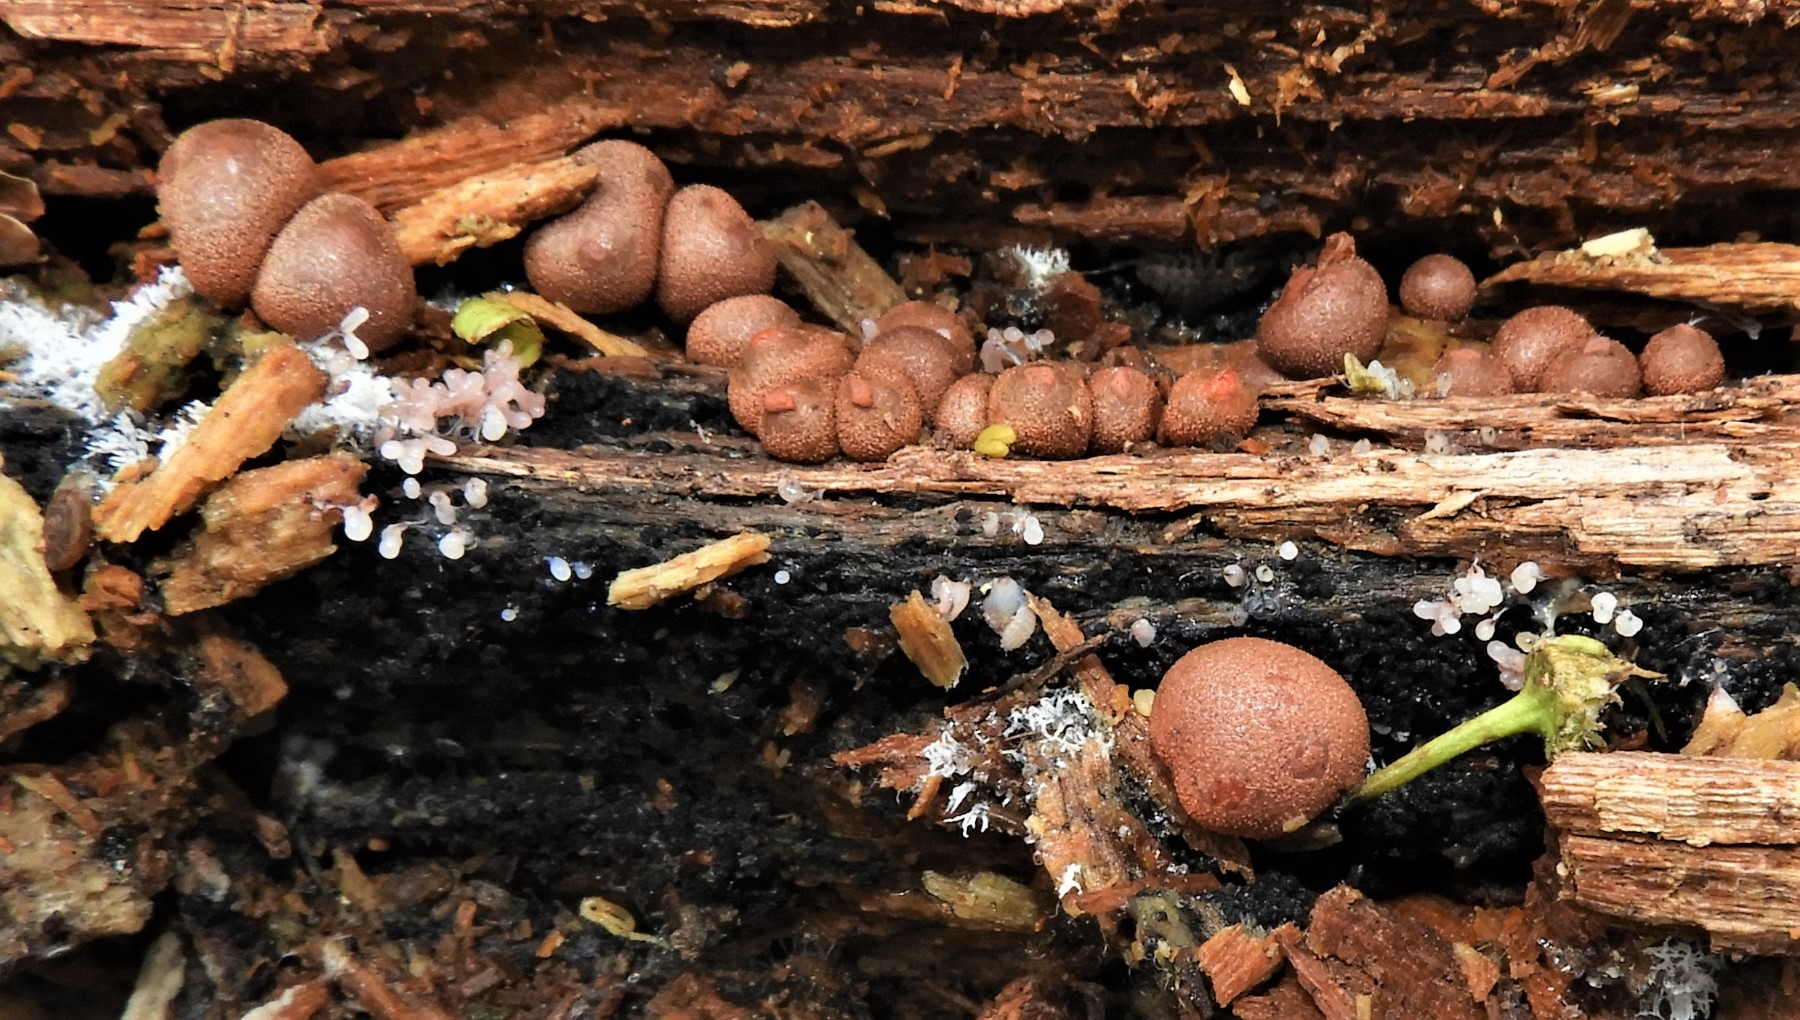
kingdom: Protozoa
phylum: Mycetozoa
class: Myxomycetes
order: Cribrariales
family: Tubiferaceae
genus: Lycogala
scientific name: Lycogala epidendrum
